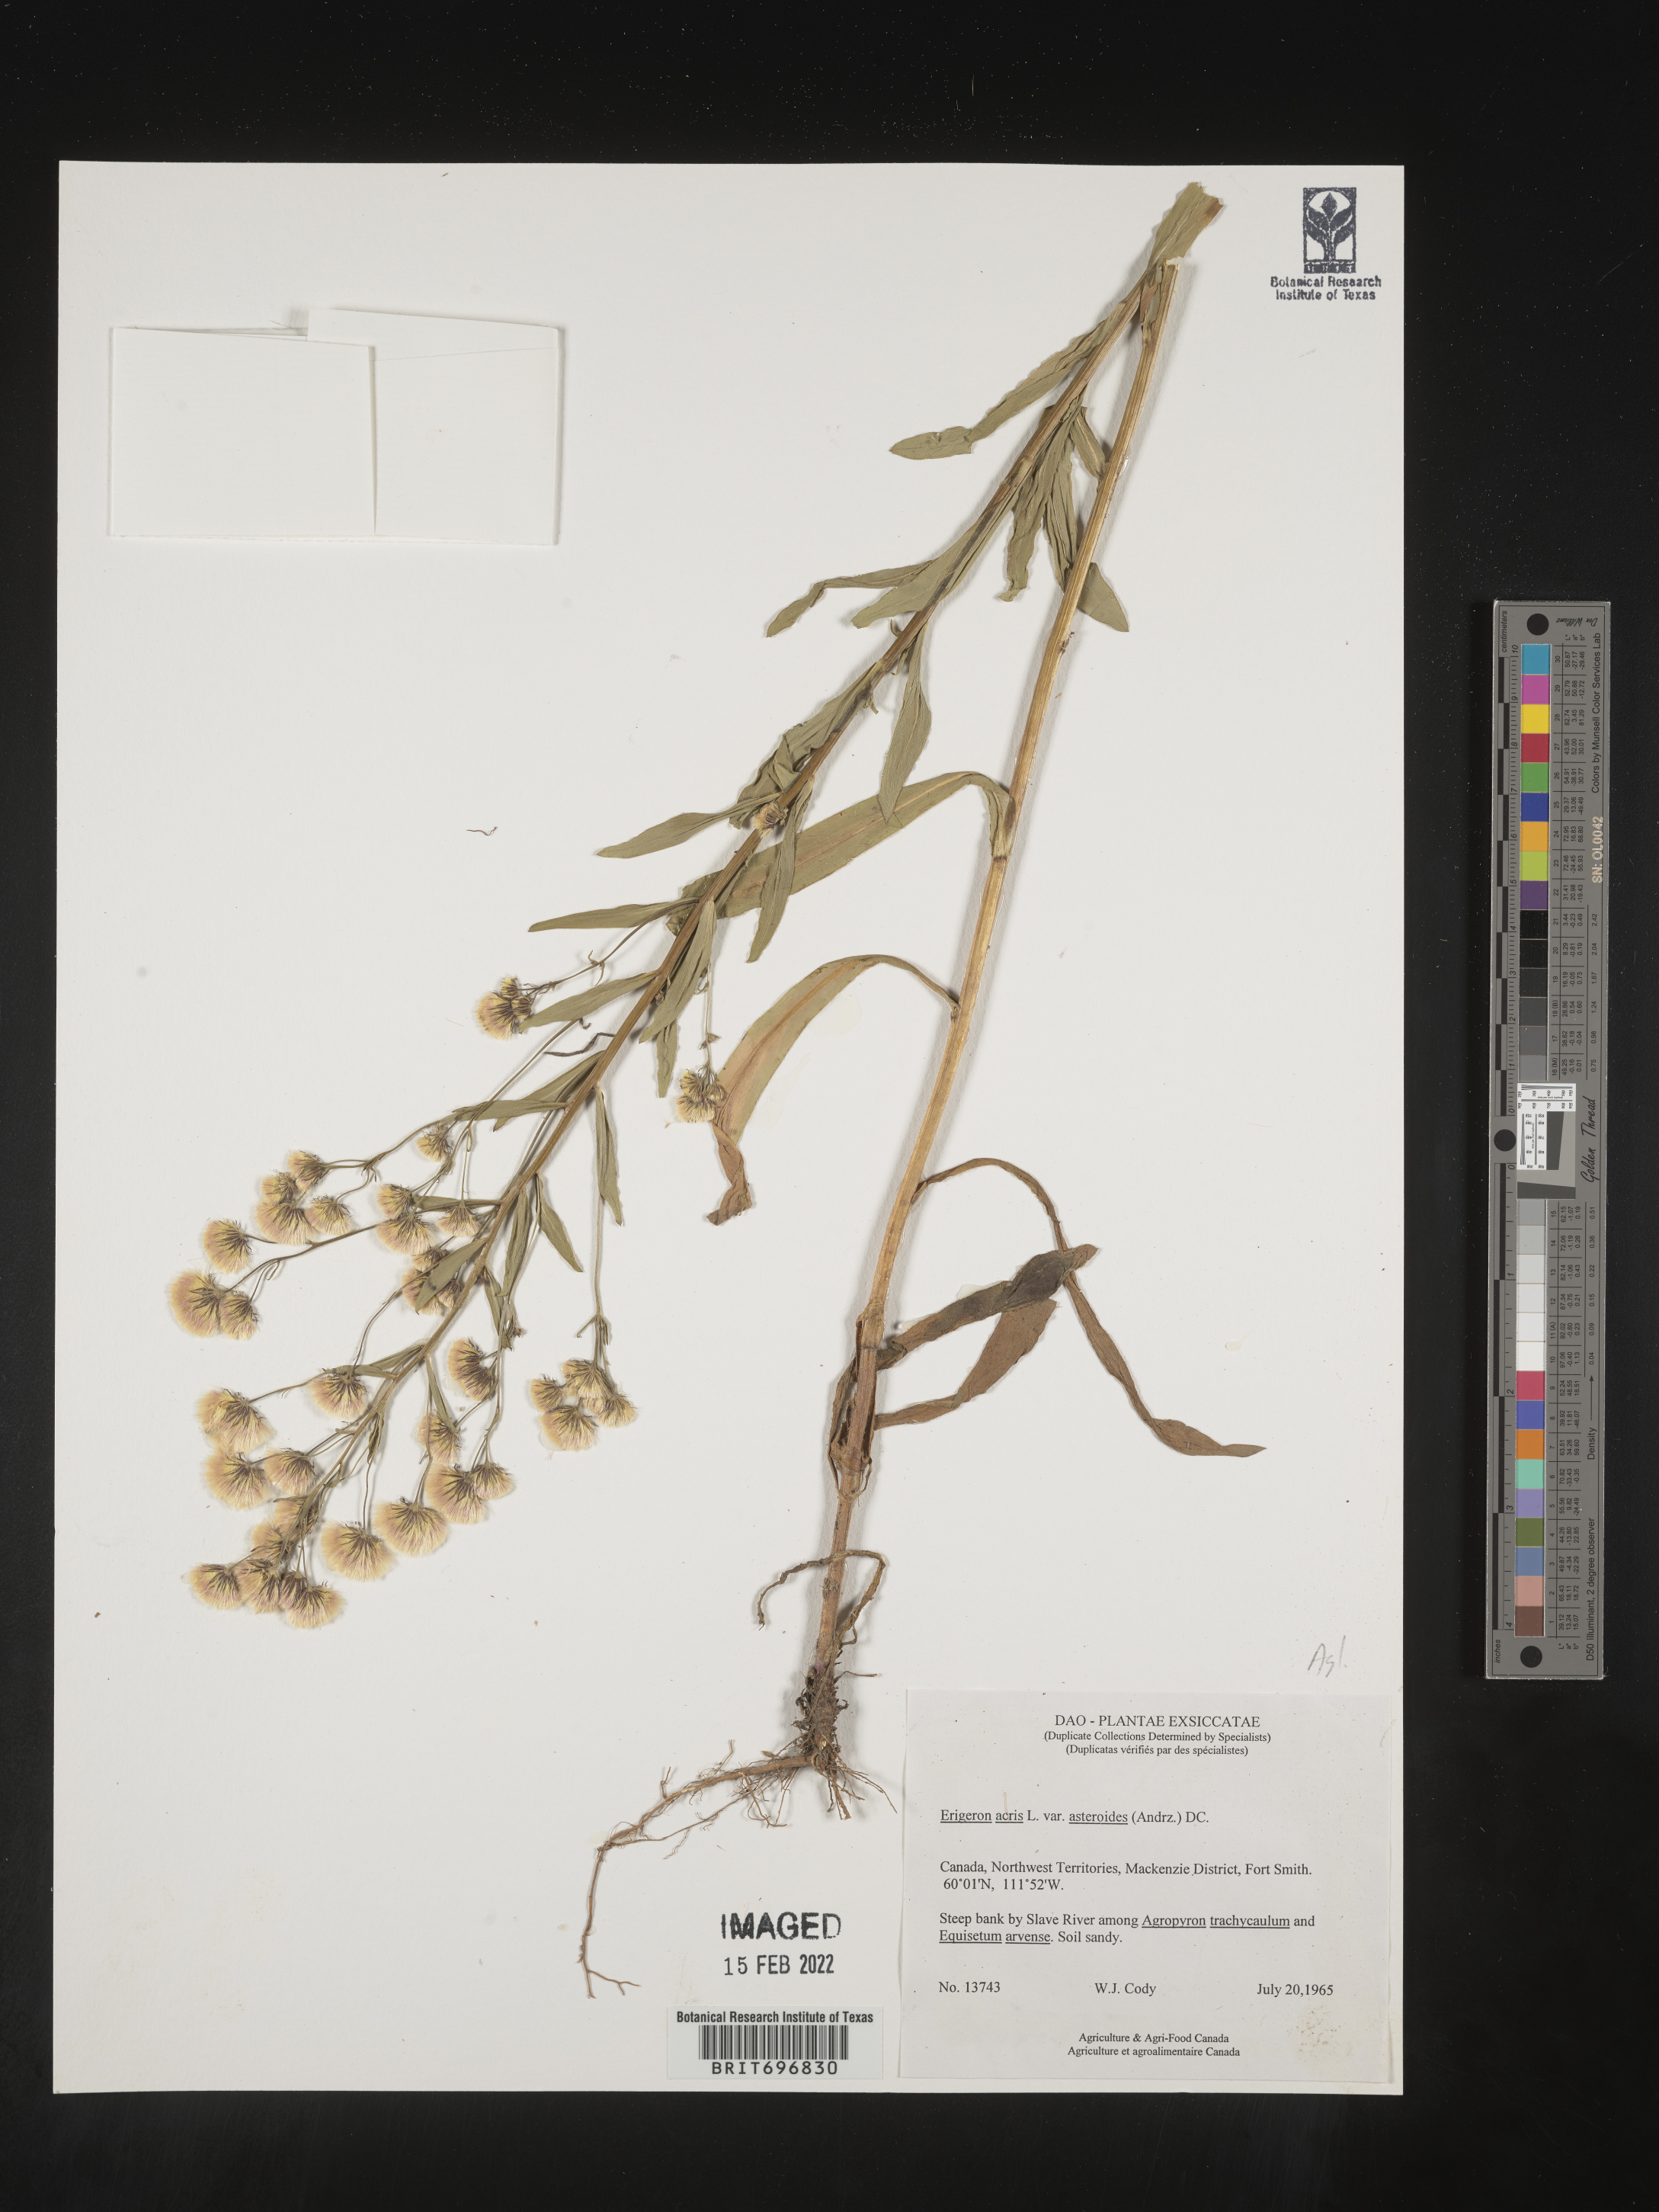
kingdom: Plantae
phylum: Tracheophyta
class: Magnoliopsida
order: Asterales
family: Asteraceae
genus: Erigeron
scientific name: Erigeron acris
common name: Blue fleabane
